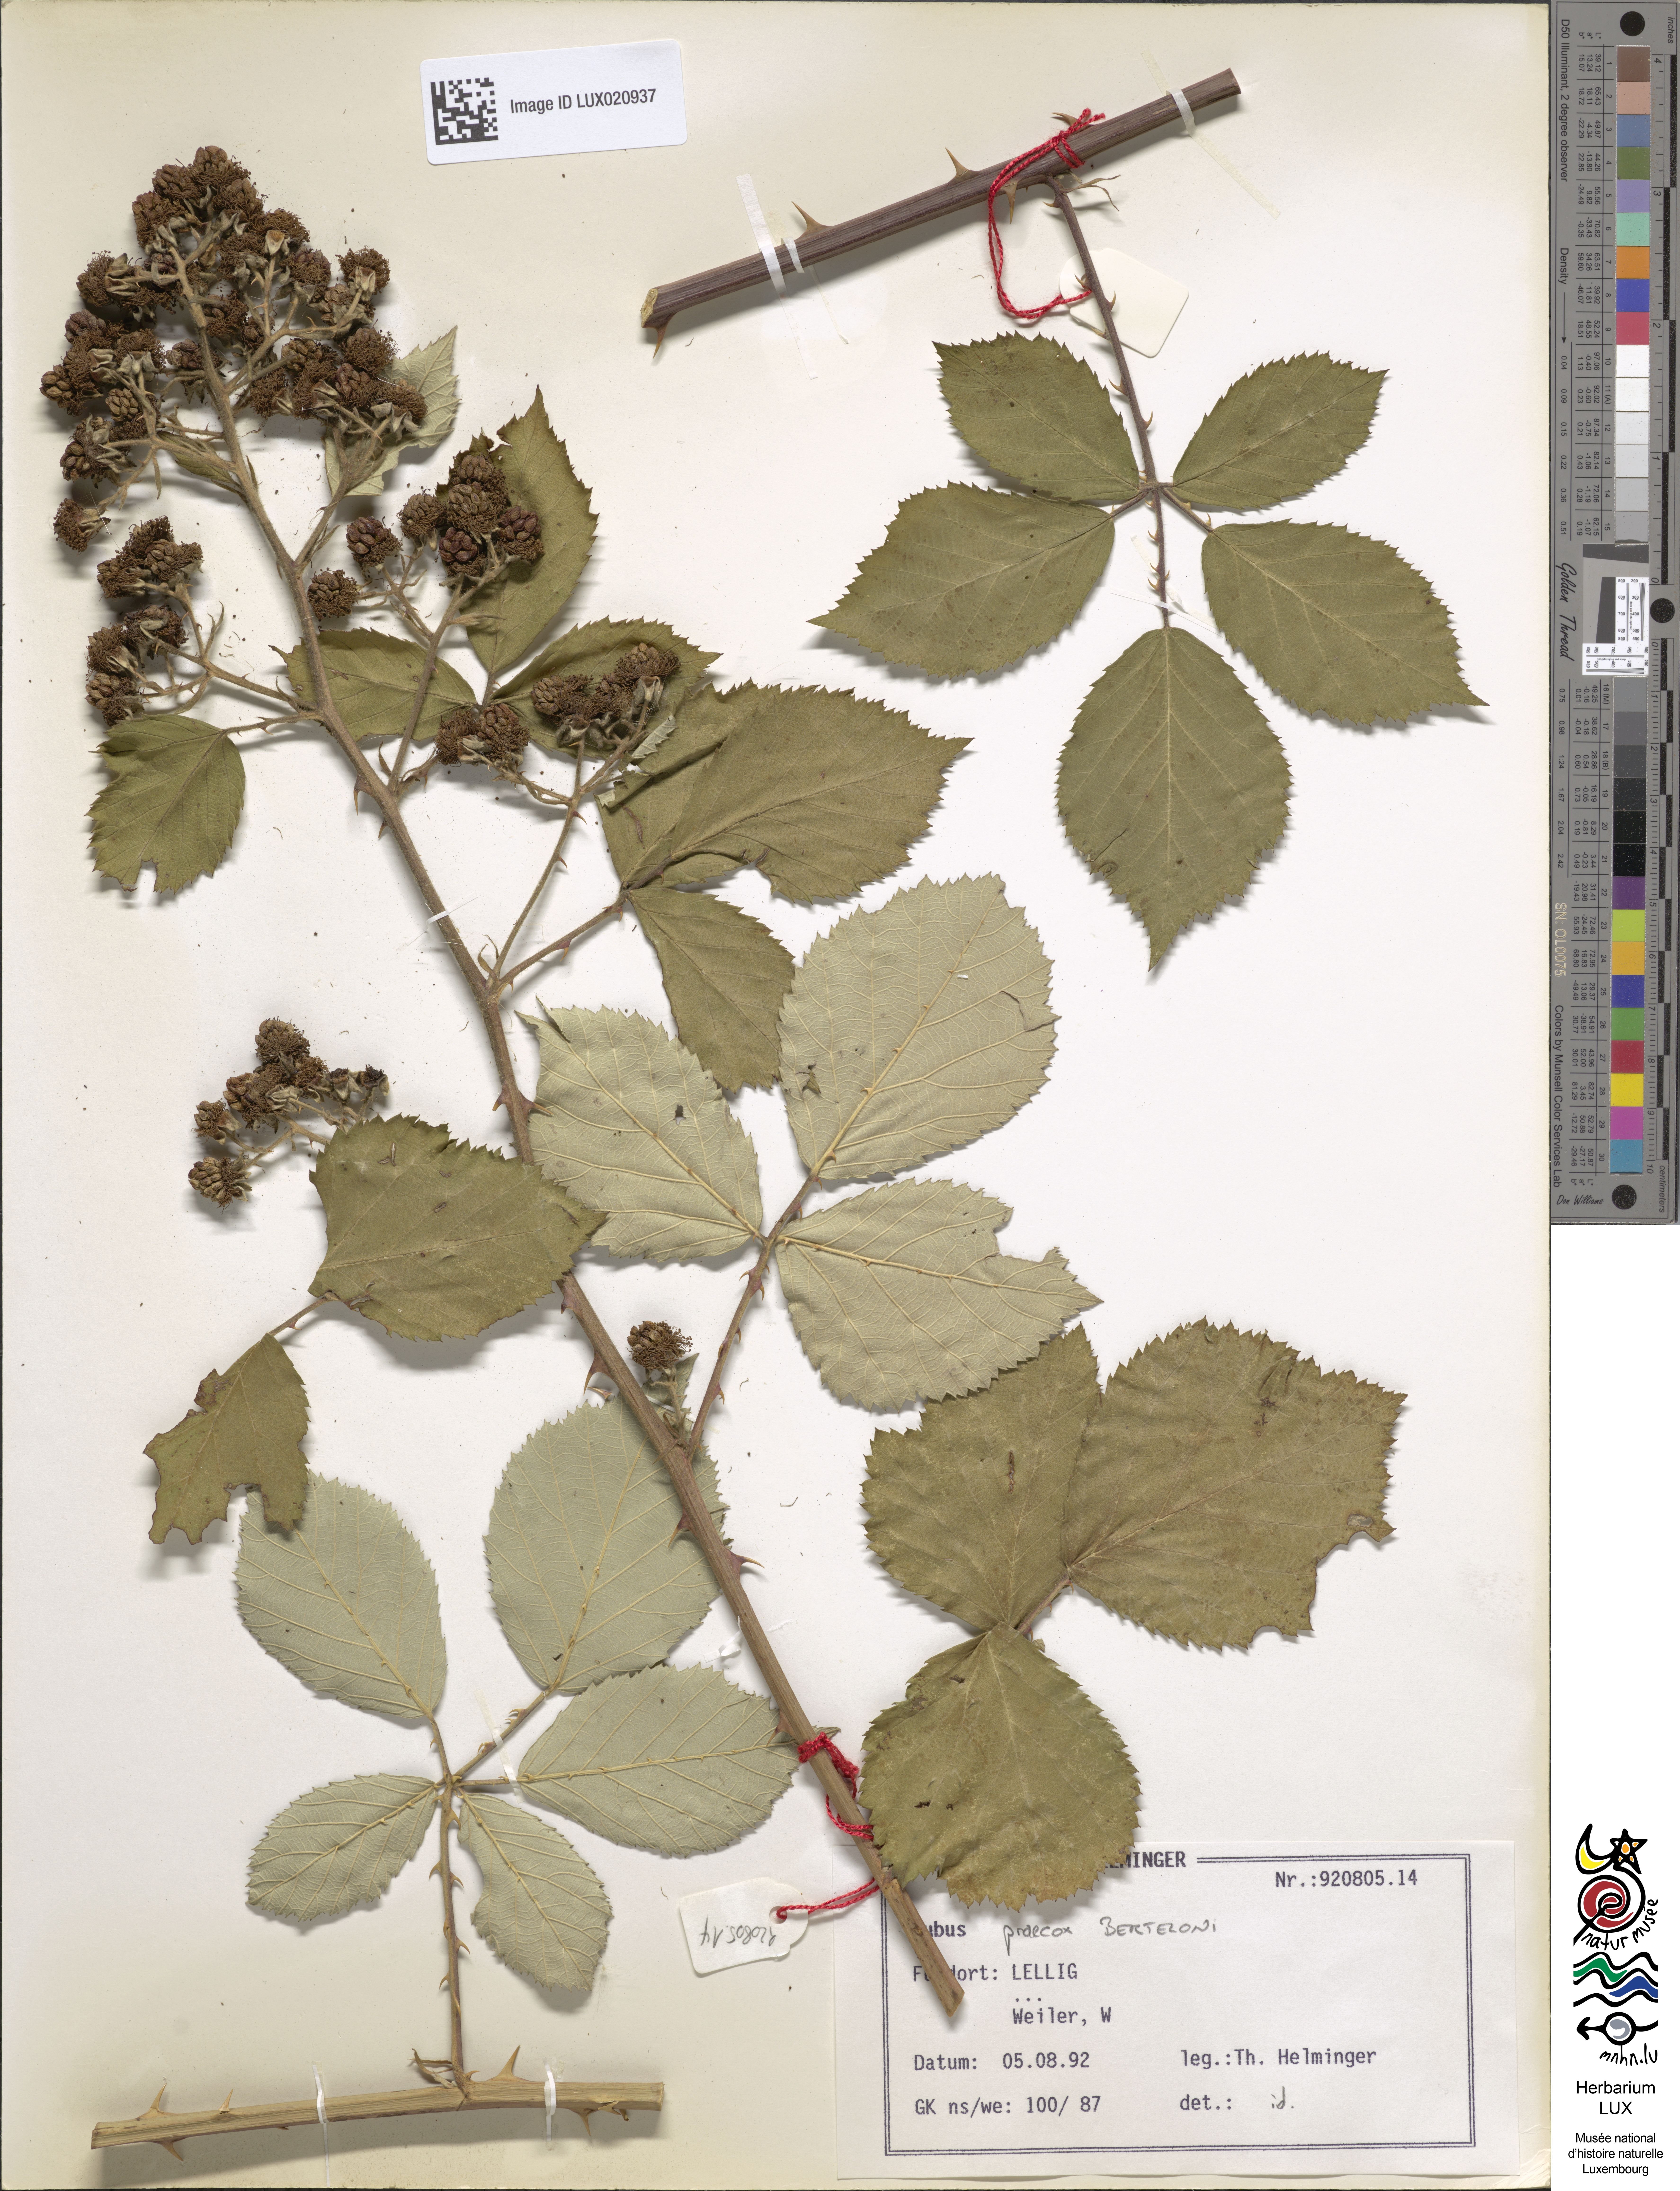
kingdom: Plantae
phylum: Tracheophyta
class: Magnoliopsida
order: Rosales
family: Rosaceae
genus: Rubus
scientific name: Rubus praecox
